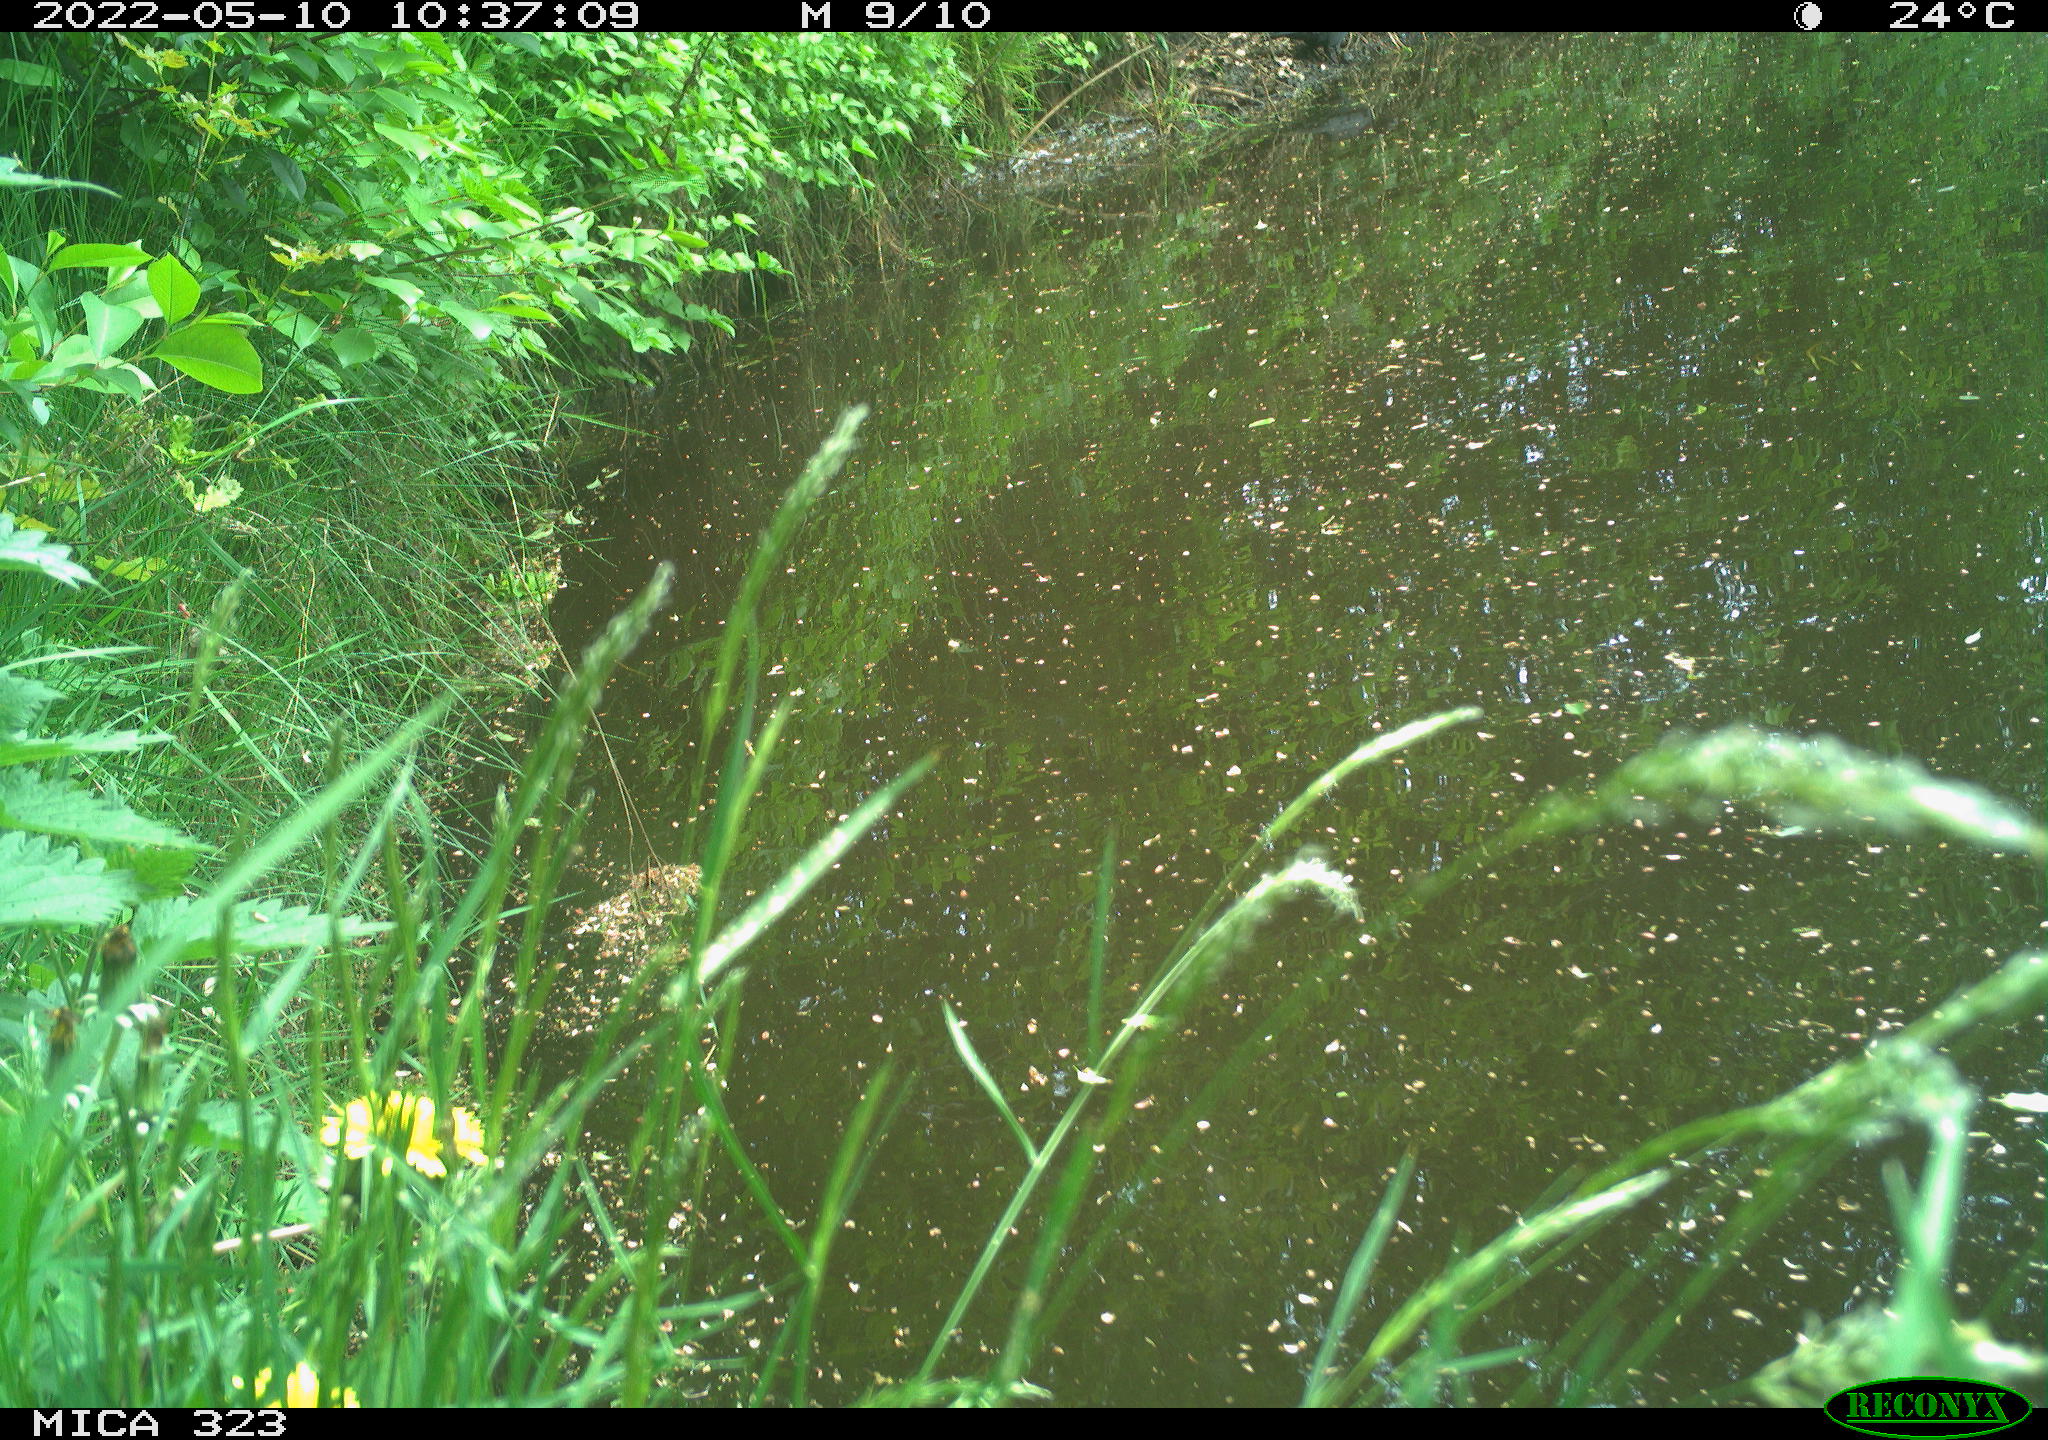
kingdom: Animalia
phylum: Chordata
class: Aves
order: Passeriformes
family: Corvidae
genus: Corvus
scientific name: Corvus corone
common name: Carrion crow
